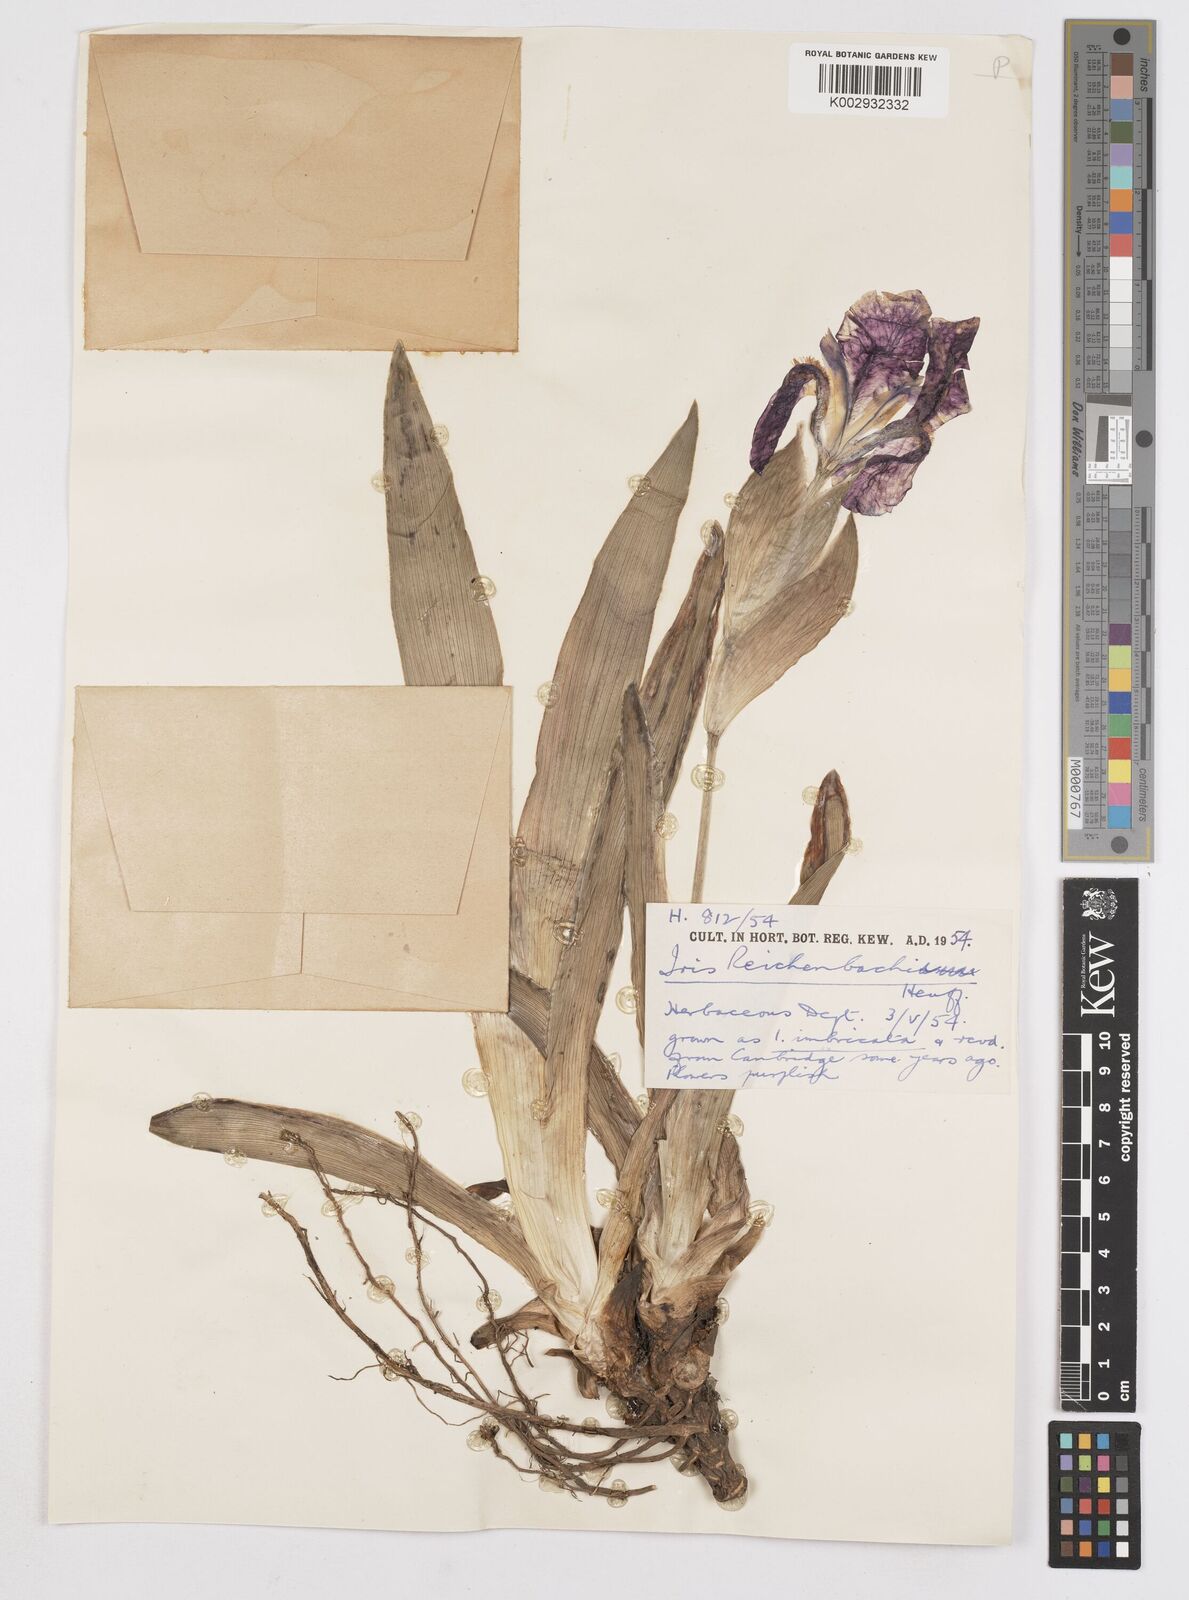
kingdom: Plantae
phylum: Tracheophyta
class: Liliopsida
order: Asparagales
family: Iridaceae
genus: Iris
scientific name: Iris reichenbachii
